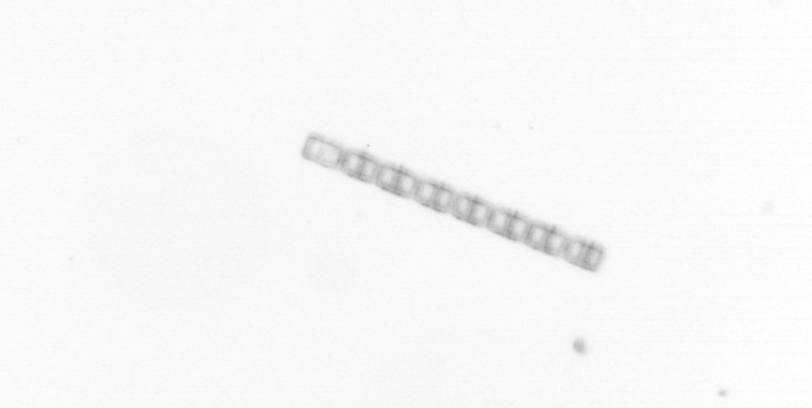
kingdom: Chromista
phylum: Ochrophyta
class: Bacillariophyceae
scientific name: Bacillariophyceae
